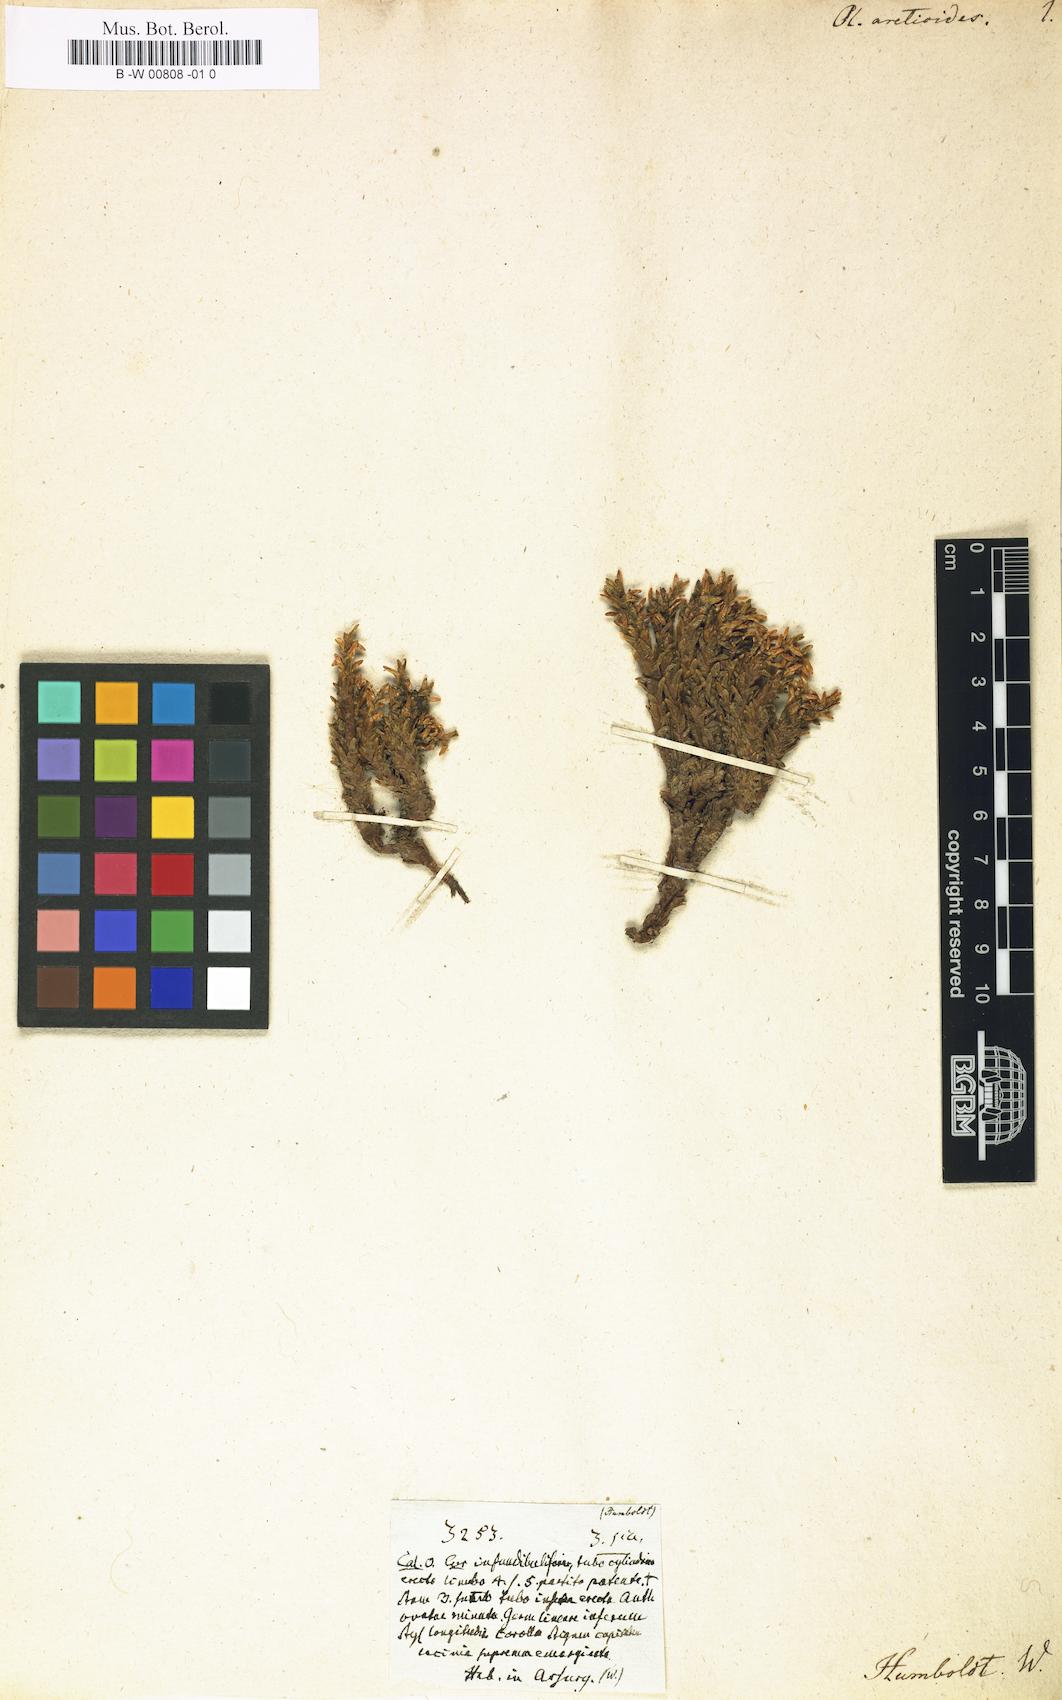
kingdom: Plantae
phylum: Tracheophyta
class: Magnoliopsida
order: Dipsacales
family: Caprifoliaceae
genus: Valeriana
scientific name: Valeriana
